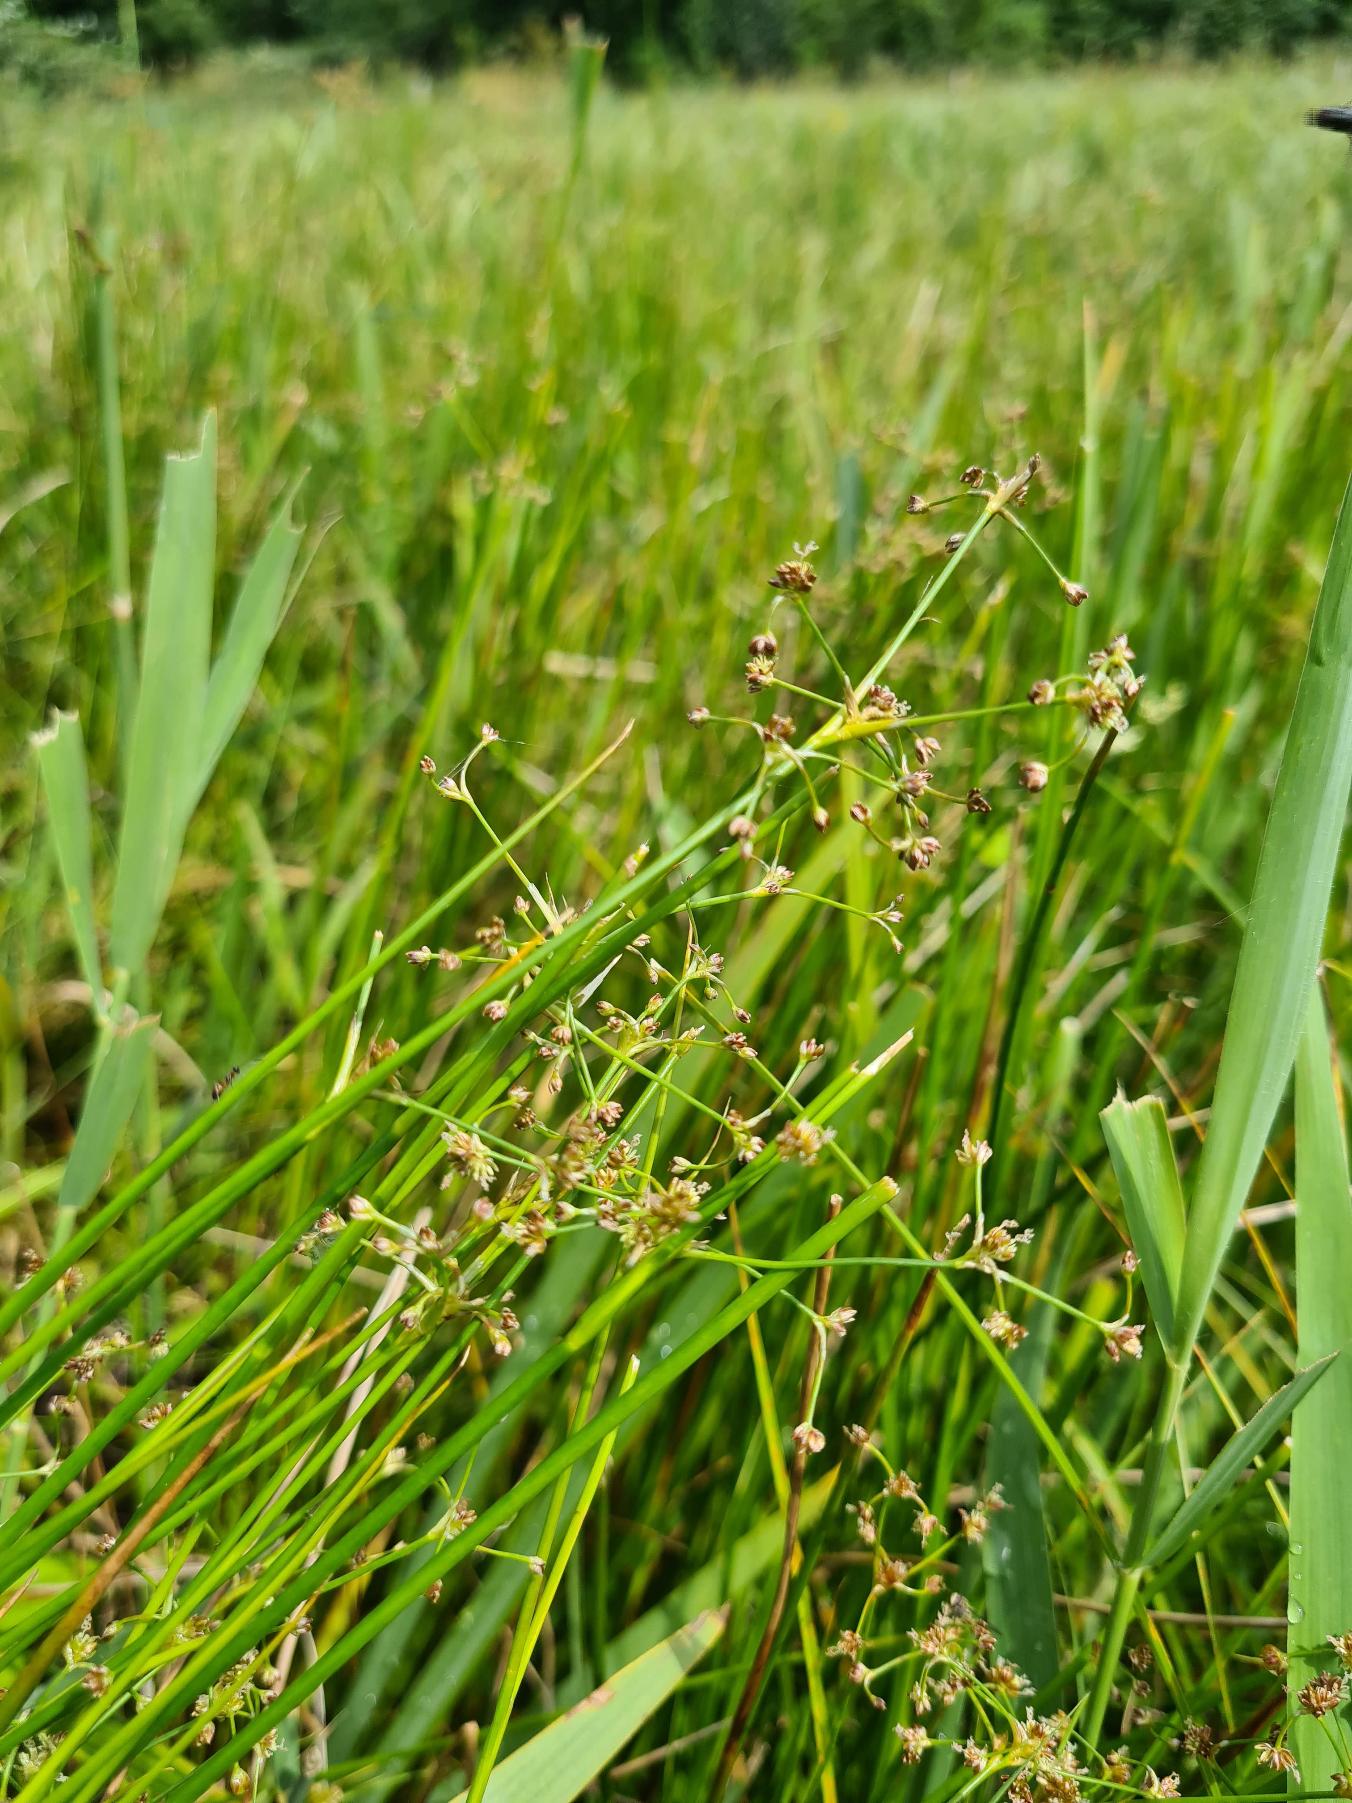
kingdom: Plantae
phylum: Tracheophyta
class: Liliopsida
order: Poales
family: Juncaceae
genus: Juncus
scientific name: Juncus subnodulosus
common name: Butblomstret siv
